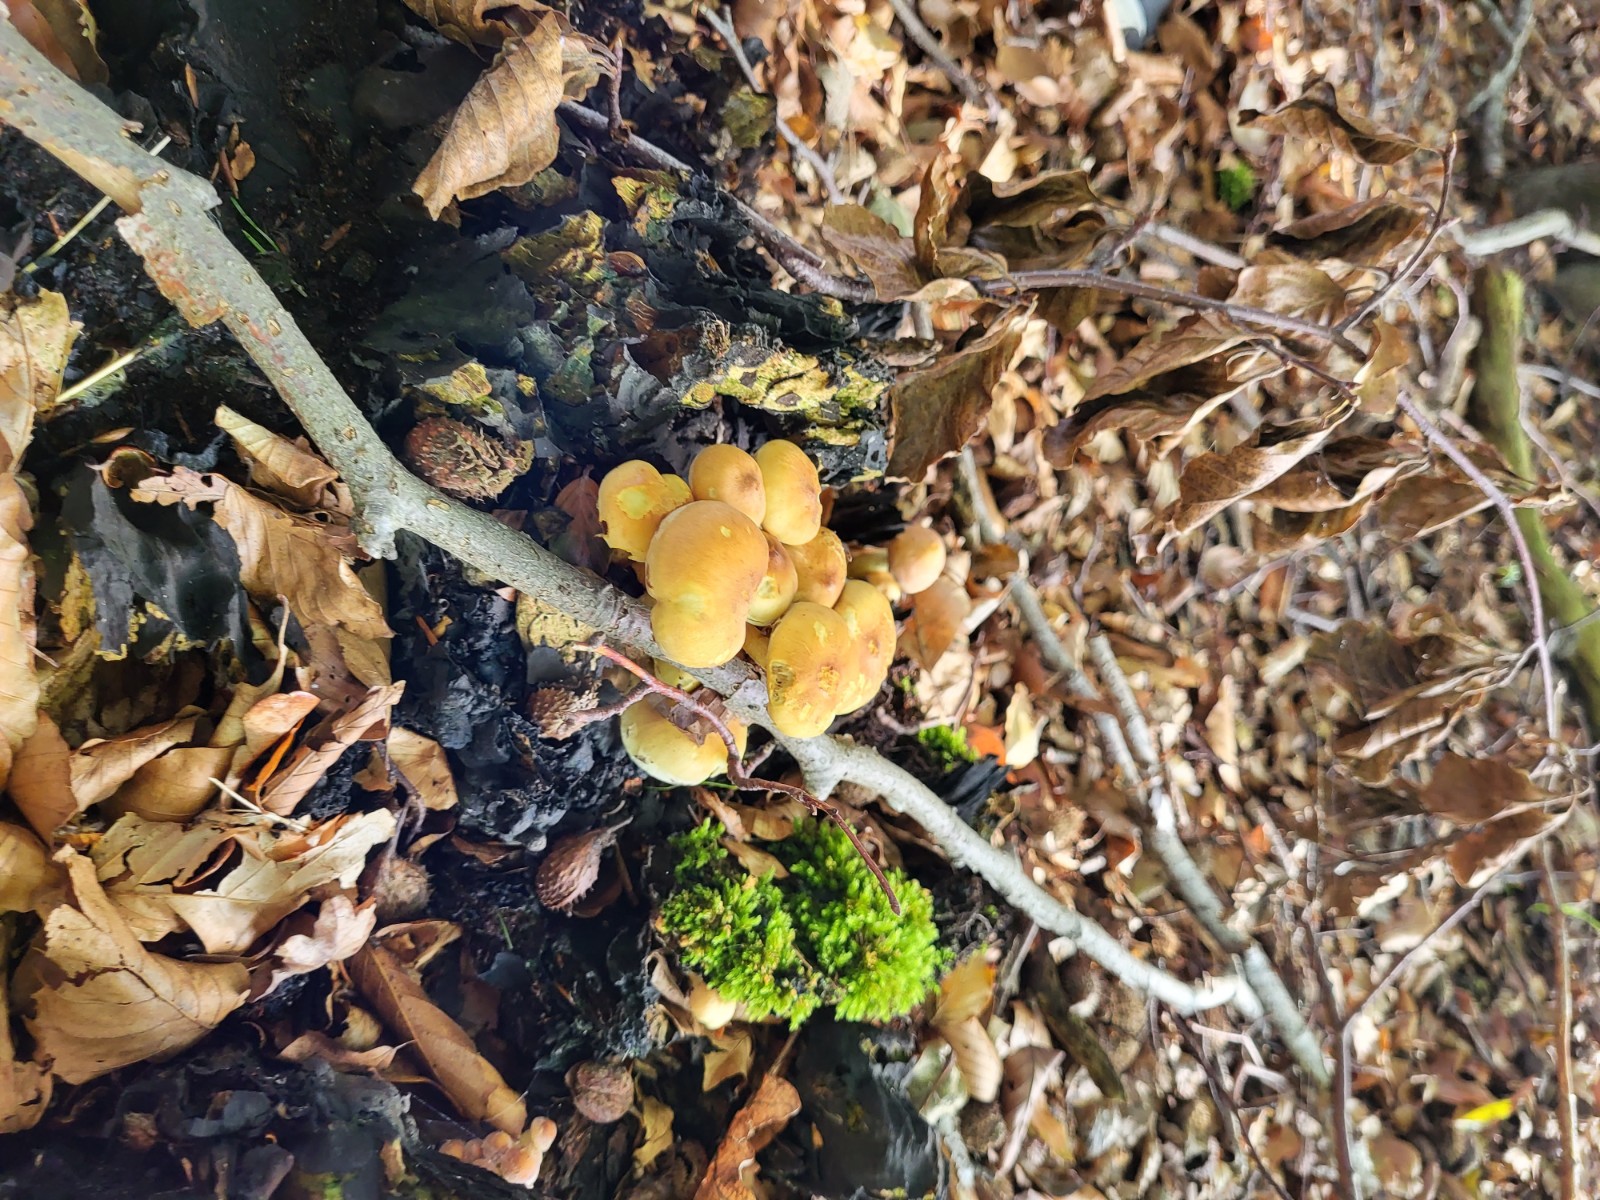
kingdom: Fungi
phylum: Basidiomycota
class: Agaricomycetes
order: Agaricales
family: Strophariaceae
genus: Hypholoma
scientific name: Hypholoma fasciculare
